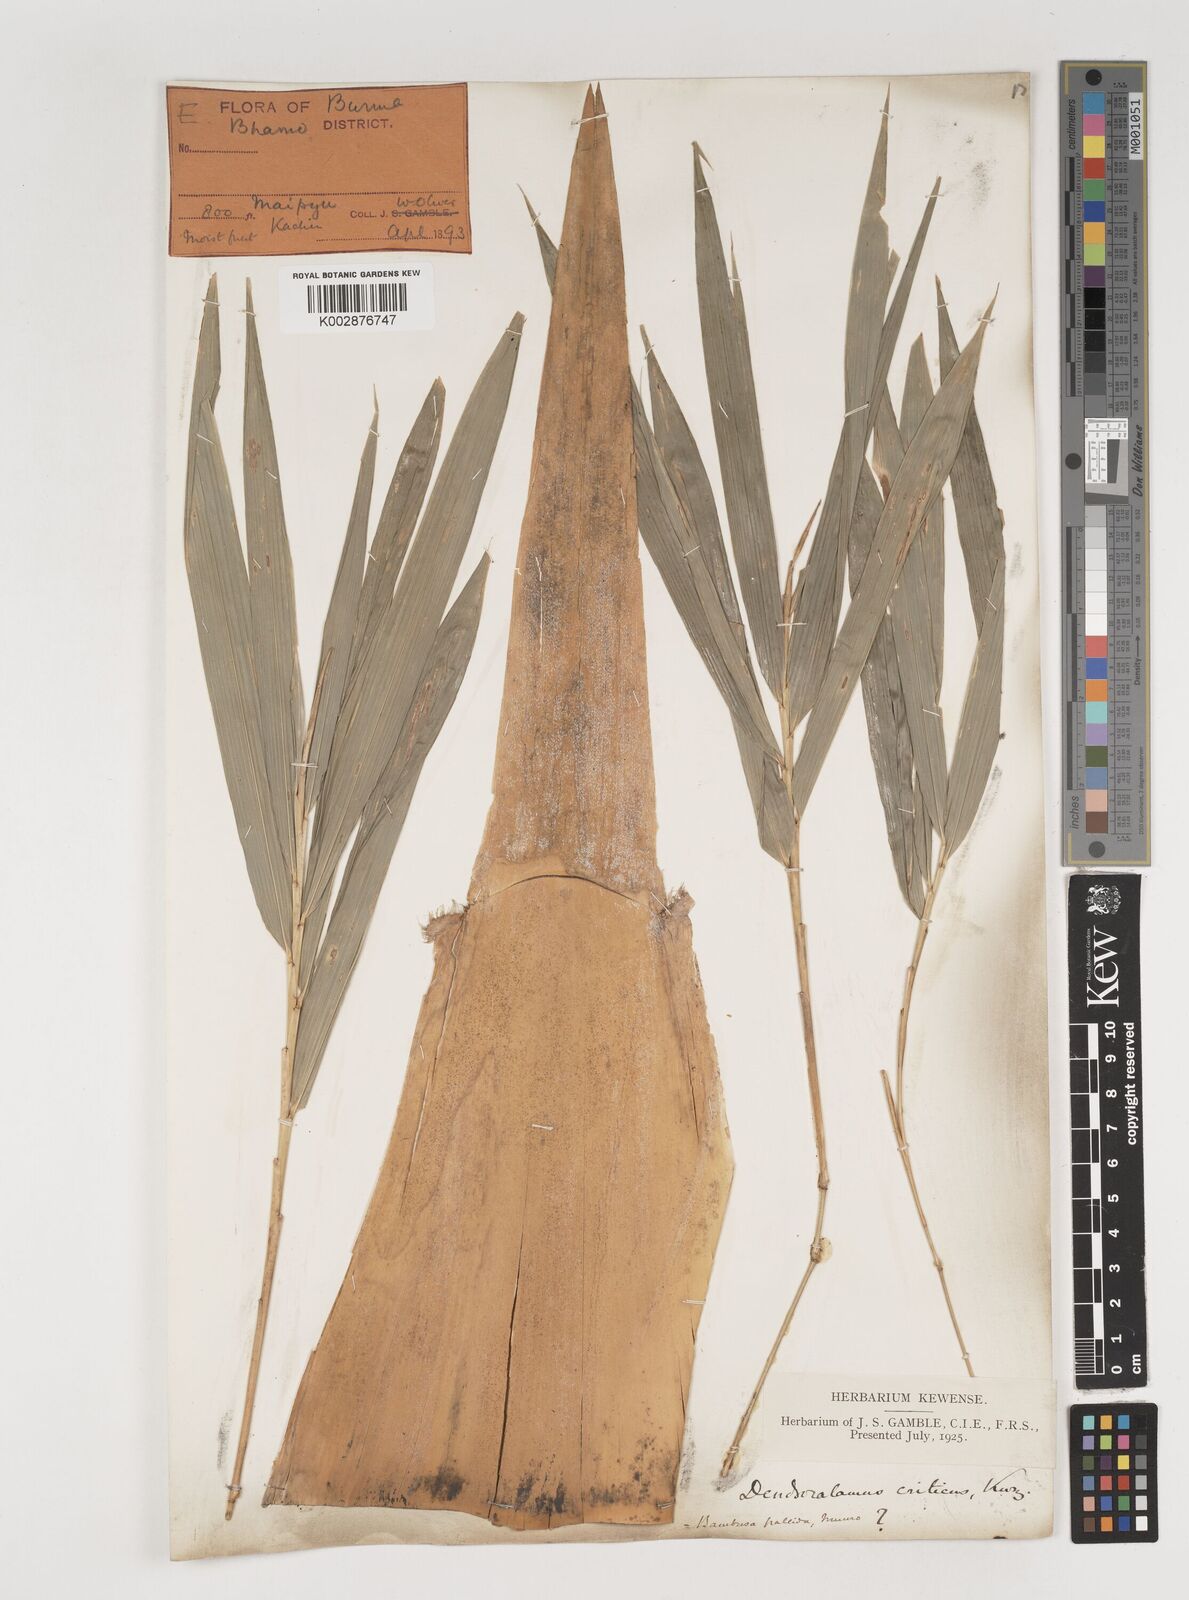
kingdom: Plantae
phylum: Tracheophyta
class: Liliopsida
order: Poales
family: Poaceae
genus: Bambusa
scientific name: Bambusa pallida
